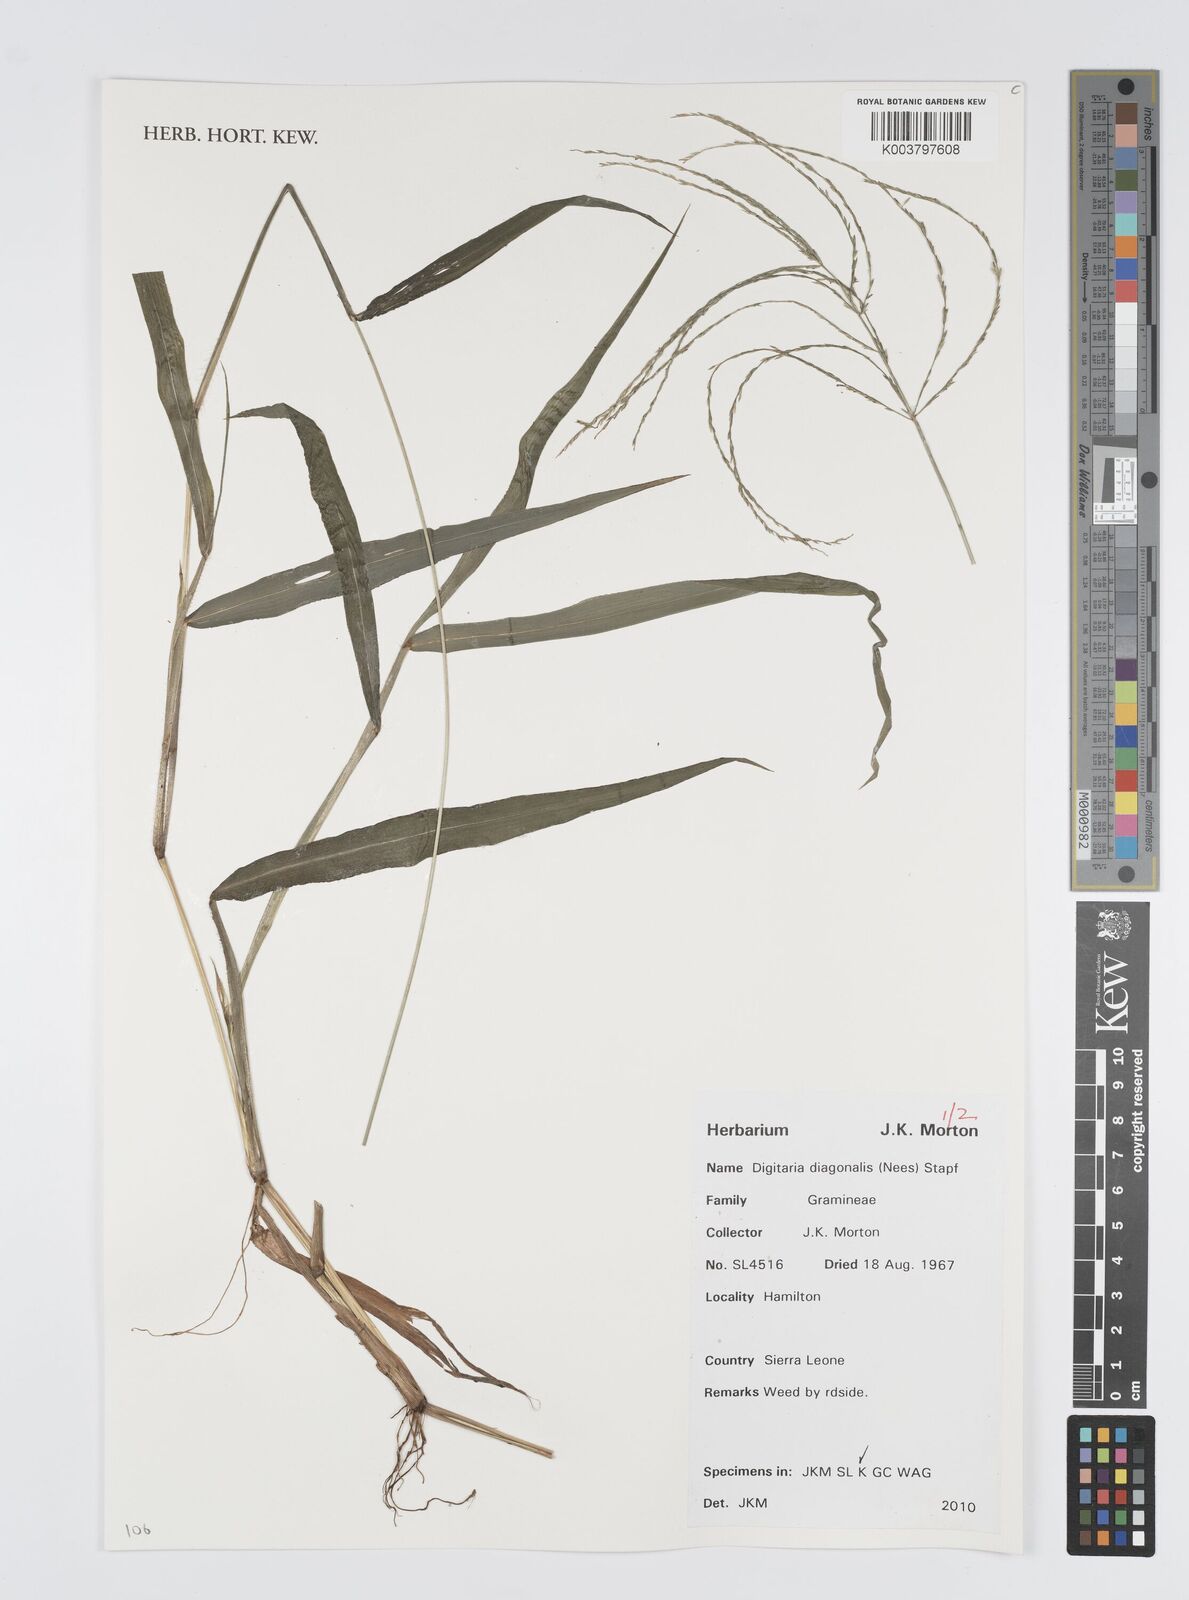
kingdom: Plantae
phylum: Tracheophyta
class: Liliopsida
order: Poales
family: Poaceae
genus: Digitaria
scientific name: Digitaria diagonalis
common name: Brown-seed finger grass
